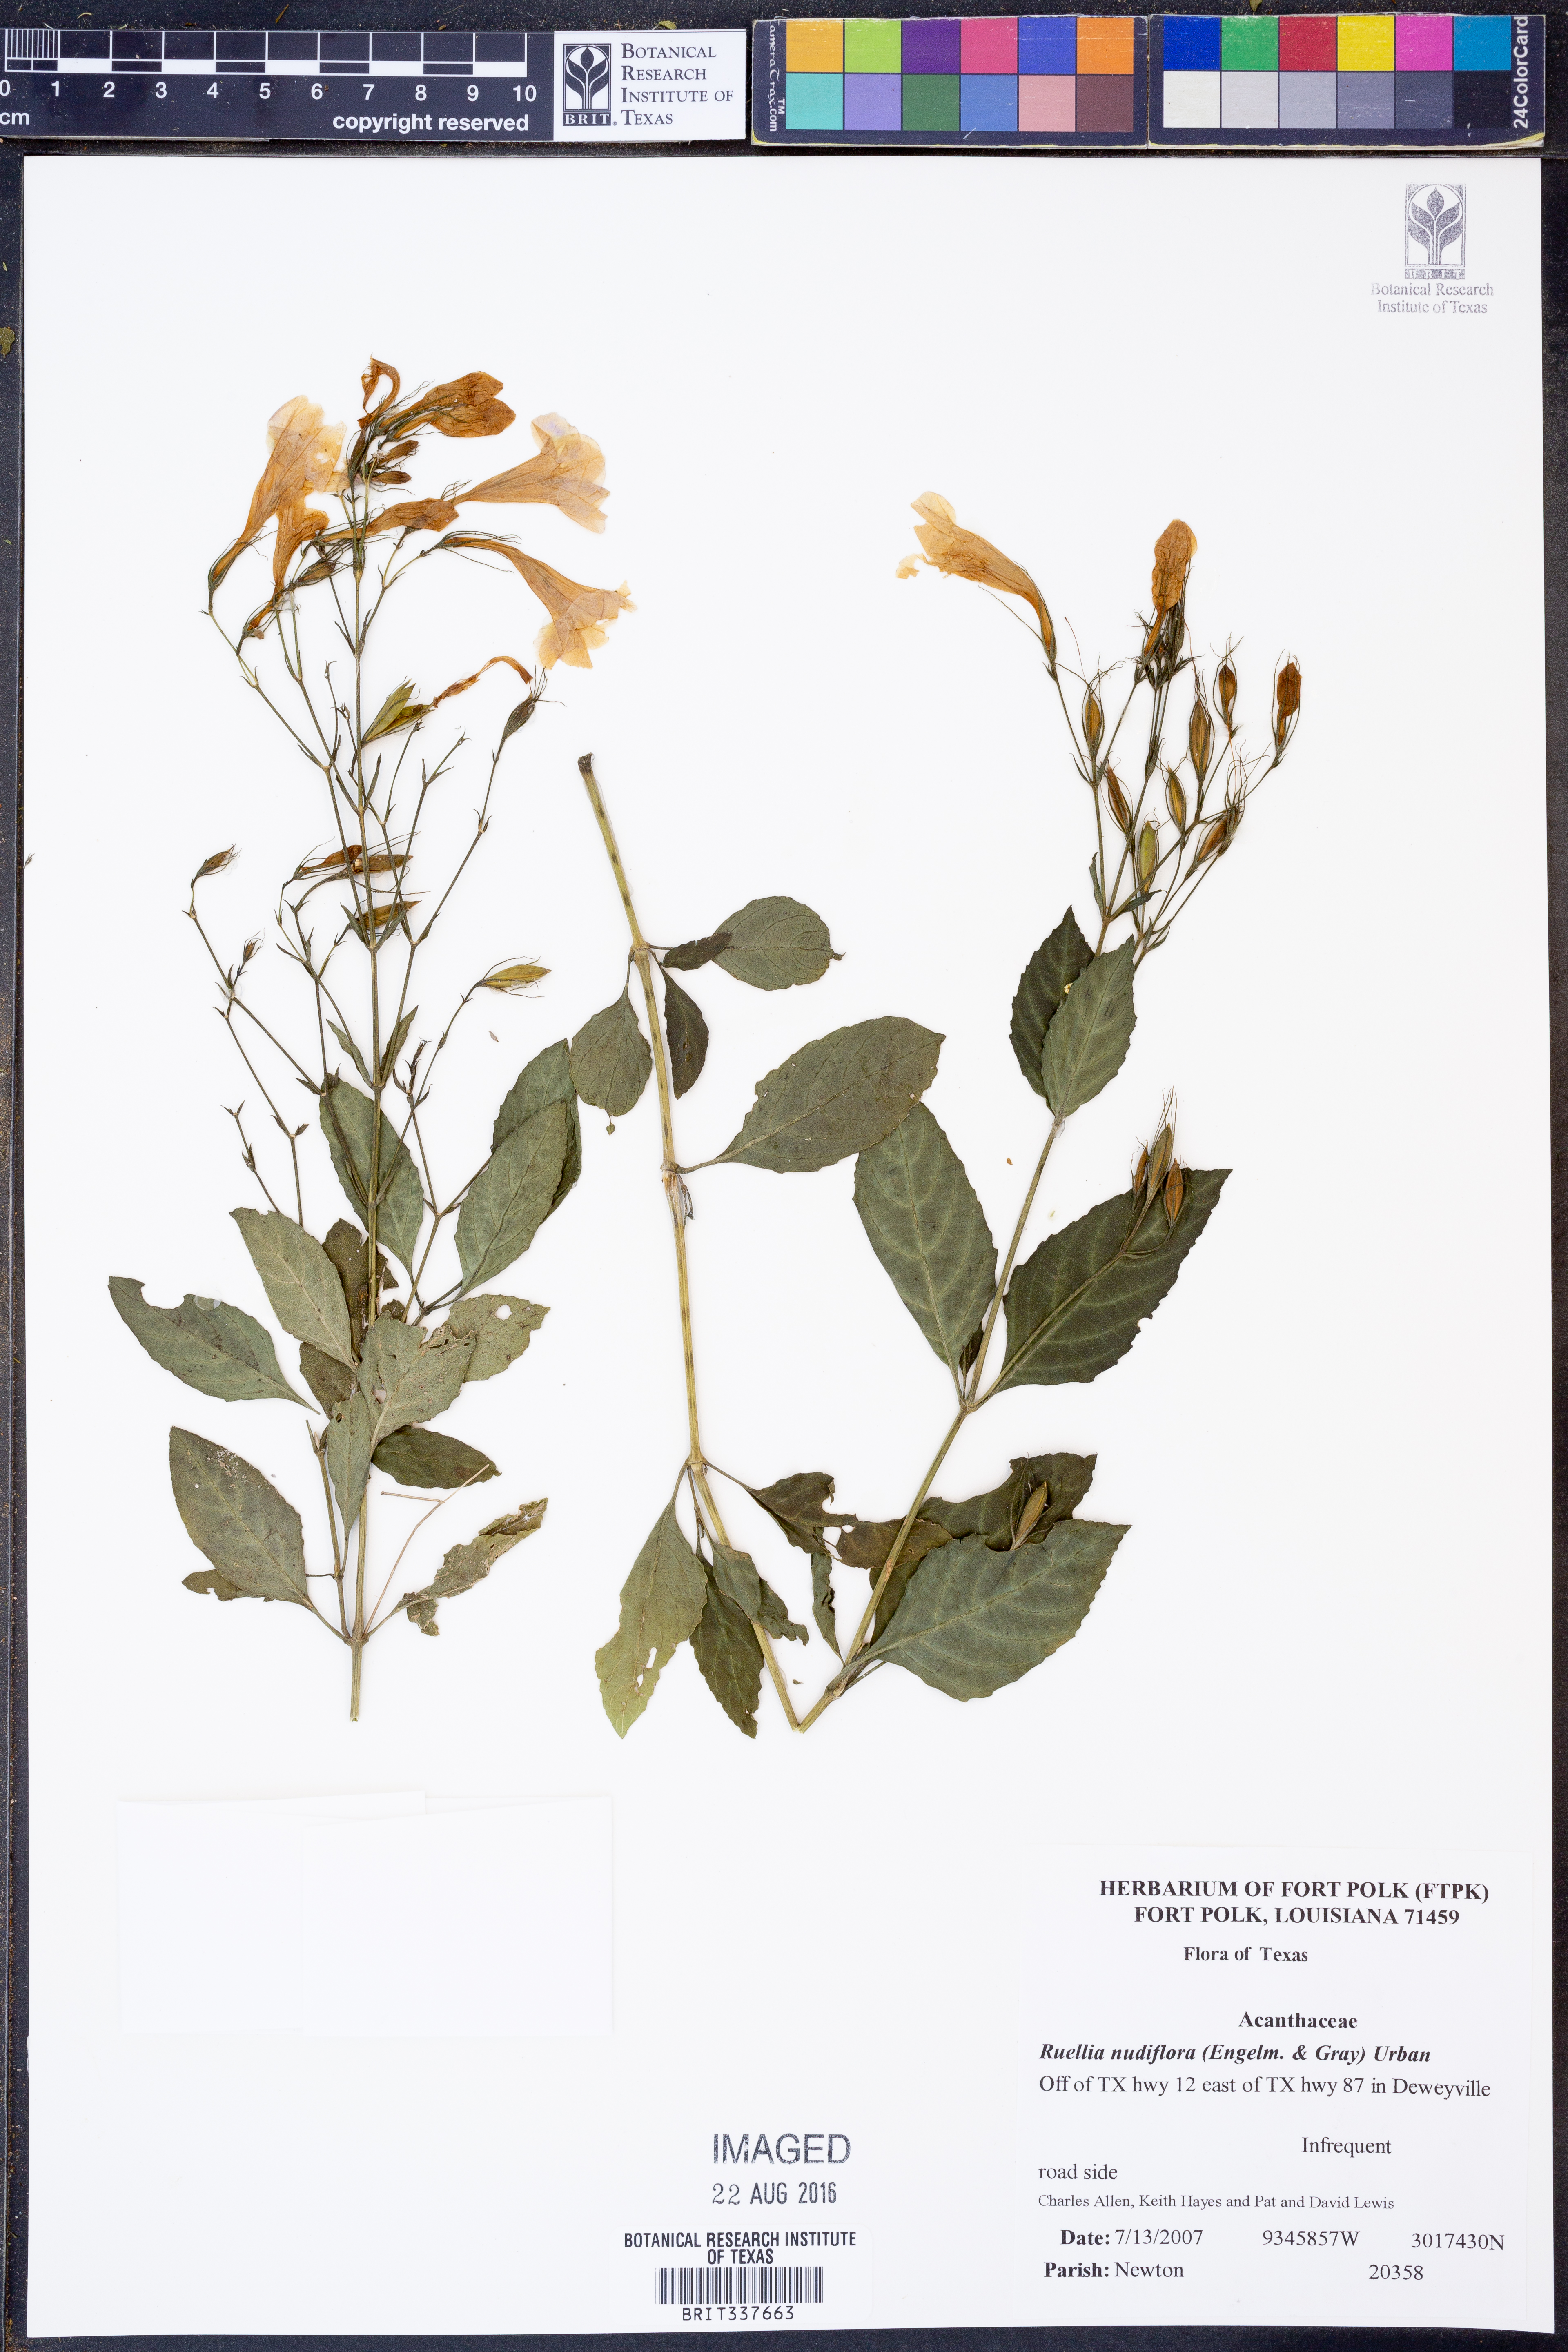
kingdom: Plantae
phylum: Tracheophyta
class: Magnoliopsida
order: Lamiales
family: Acanthaceae
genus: Ruellia
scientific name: Ruellia ciliatiflora
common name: Hairyflower wild petunia
